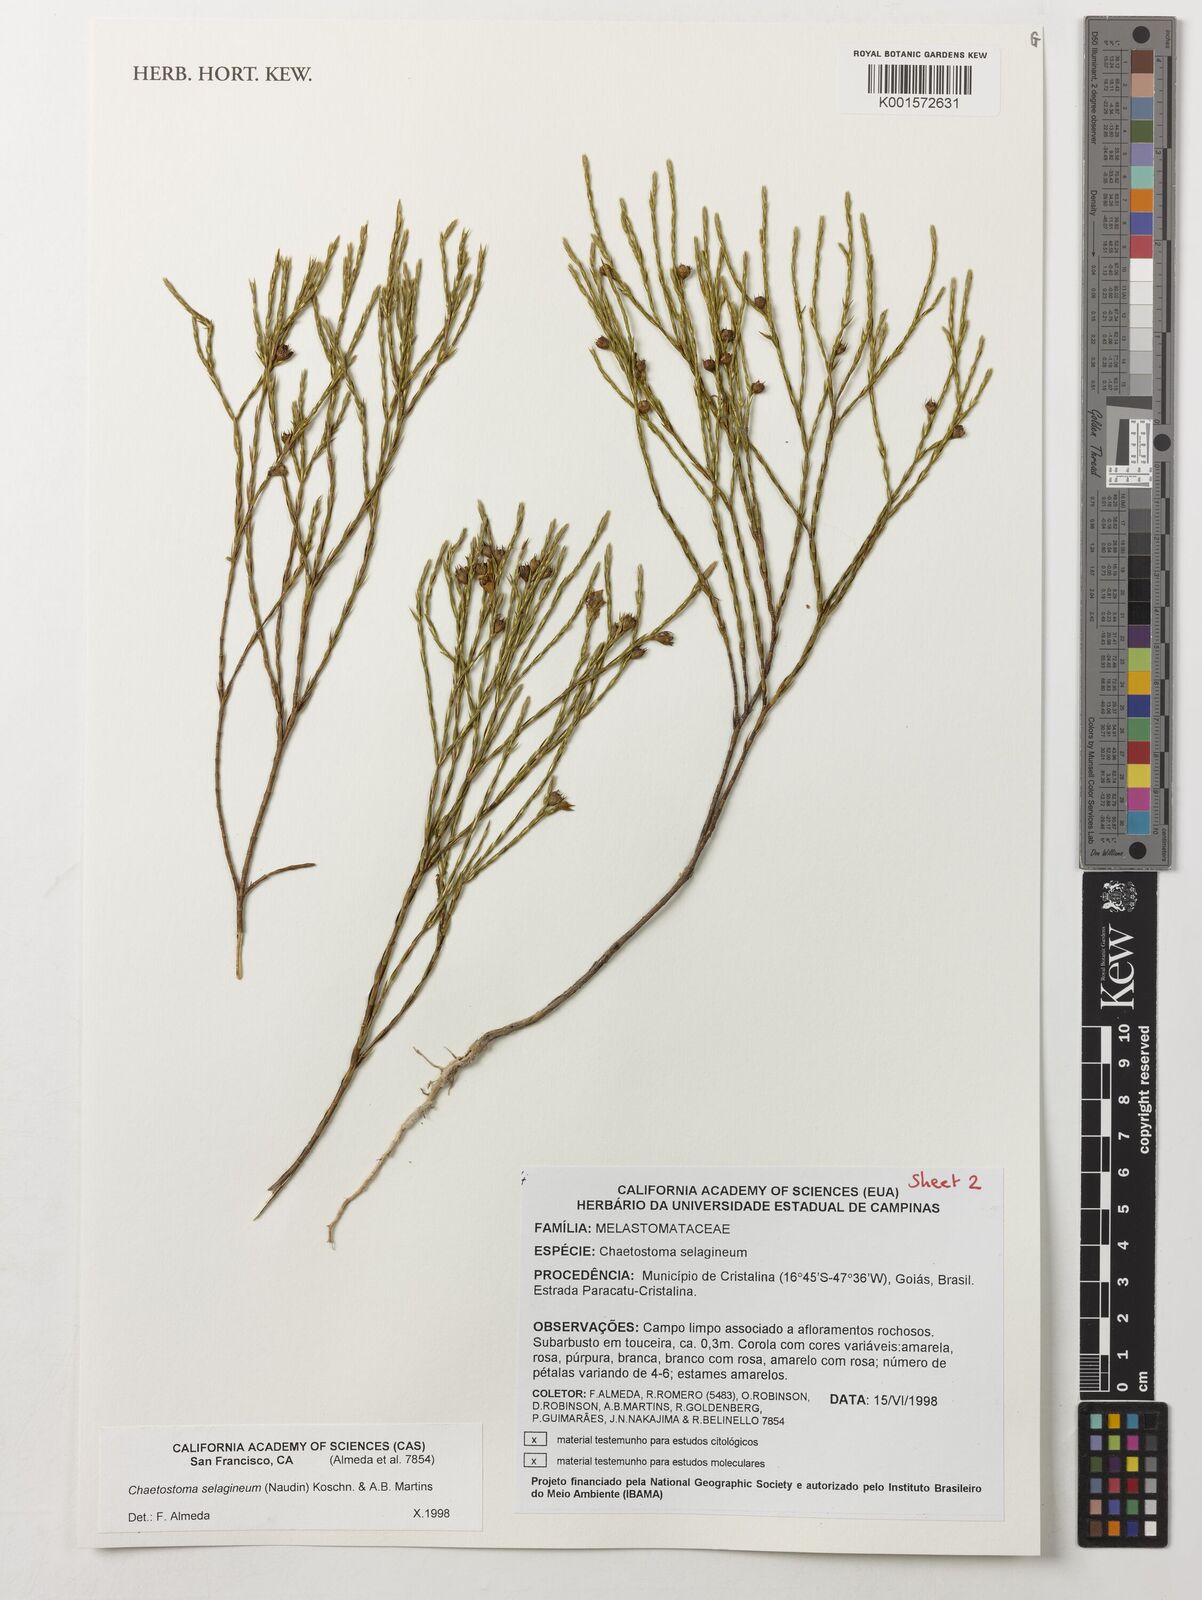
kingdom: Plantae
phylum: Tracheophyta
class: Magnoliopsida
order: Myrtales
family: Melastomataceae
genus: Microlicia
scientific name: Microlicia selaginea
